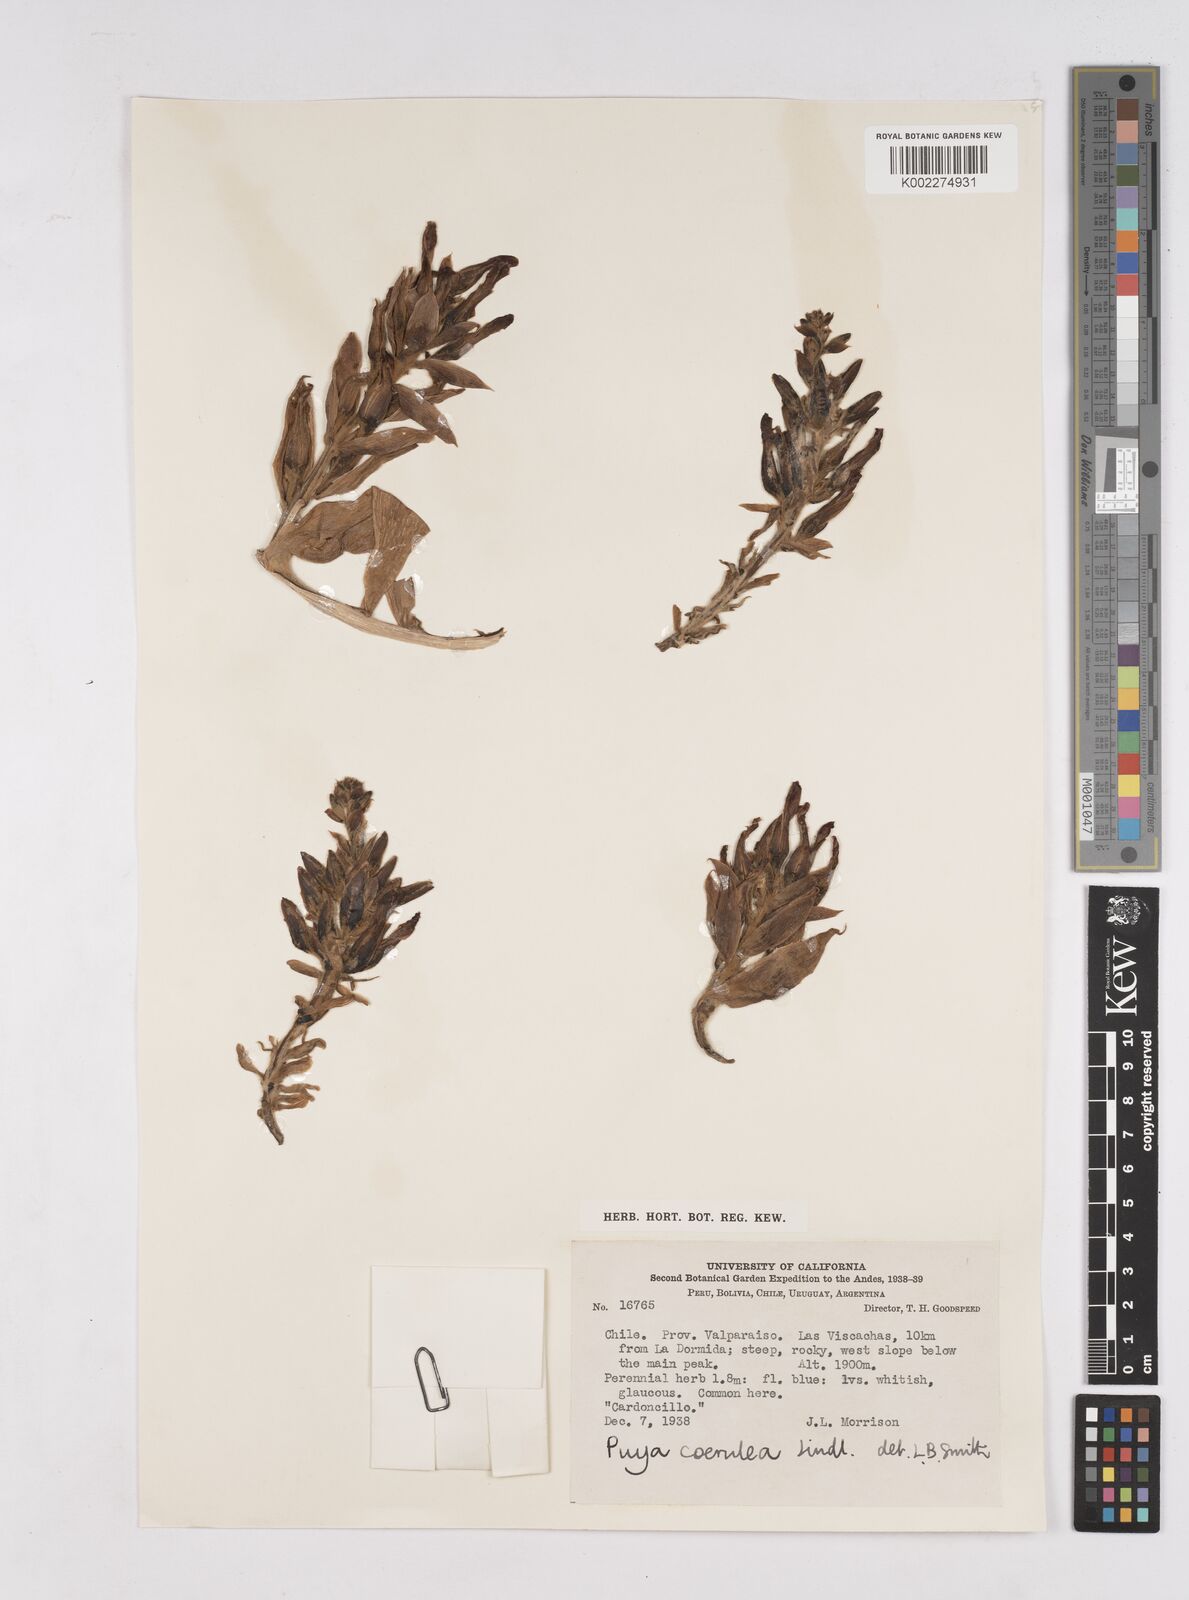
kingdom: Plantae
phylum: Tracheophyta
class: Liliopsida
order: Poales
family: Bromeliaceae
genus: Puya
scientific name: Puya coerulea
